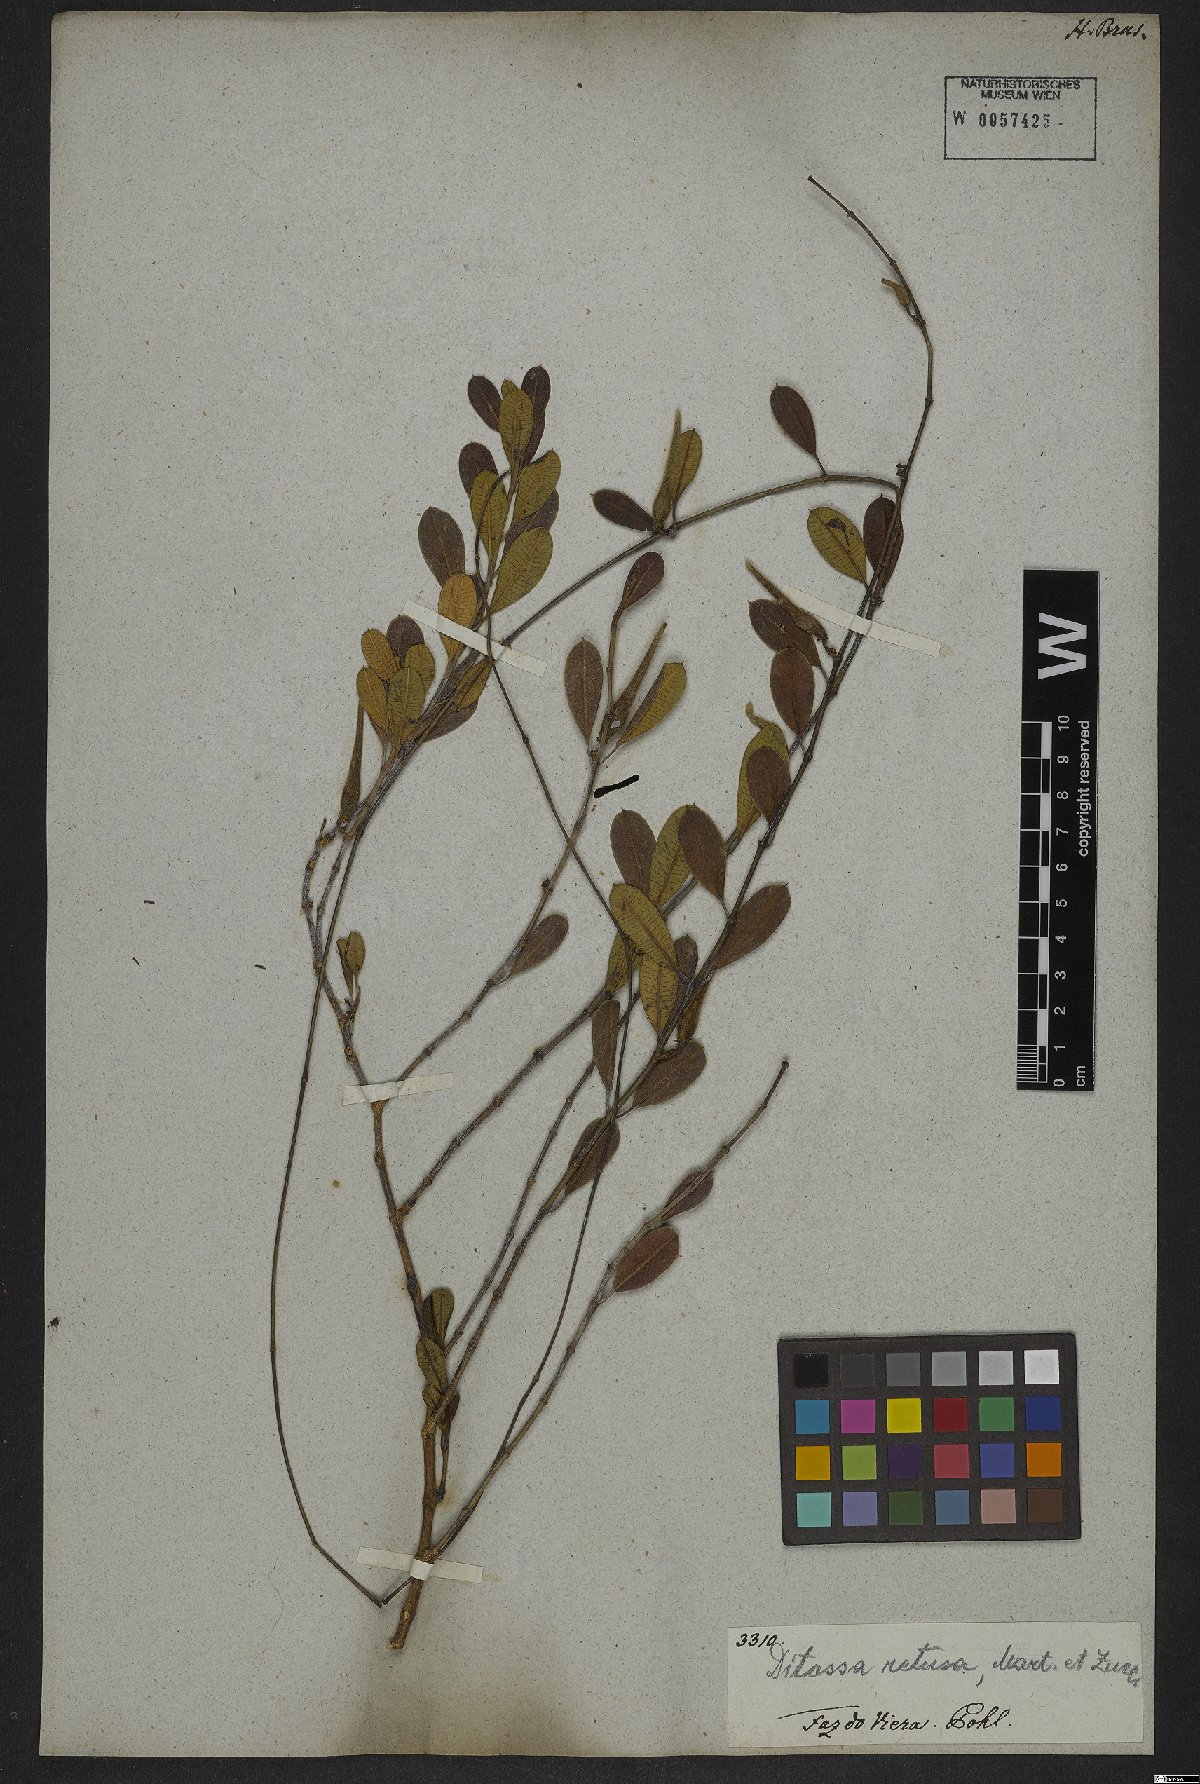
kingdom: Plantae
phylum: Tracheophyta
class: Magnoliopsida
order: Gentianales
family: Apocynaceae
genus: Ditassa
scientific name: Ditassa retusa
